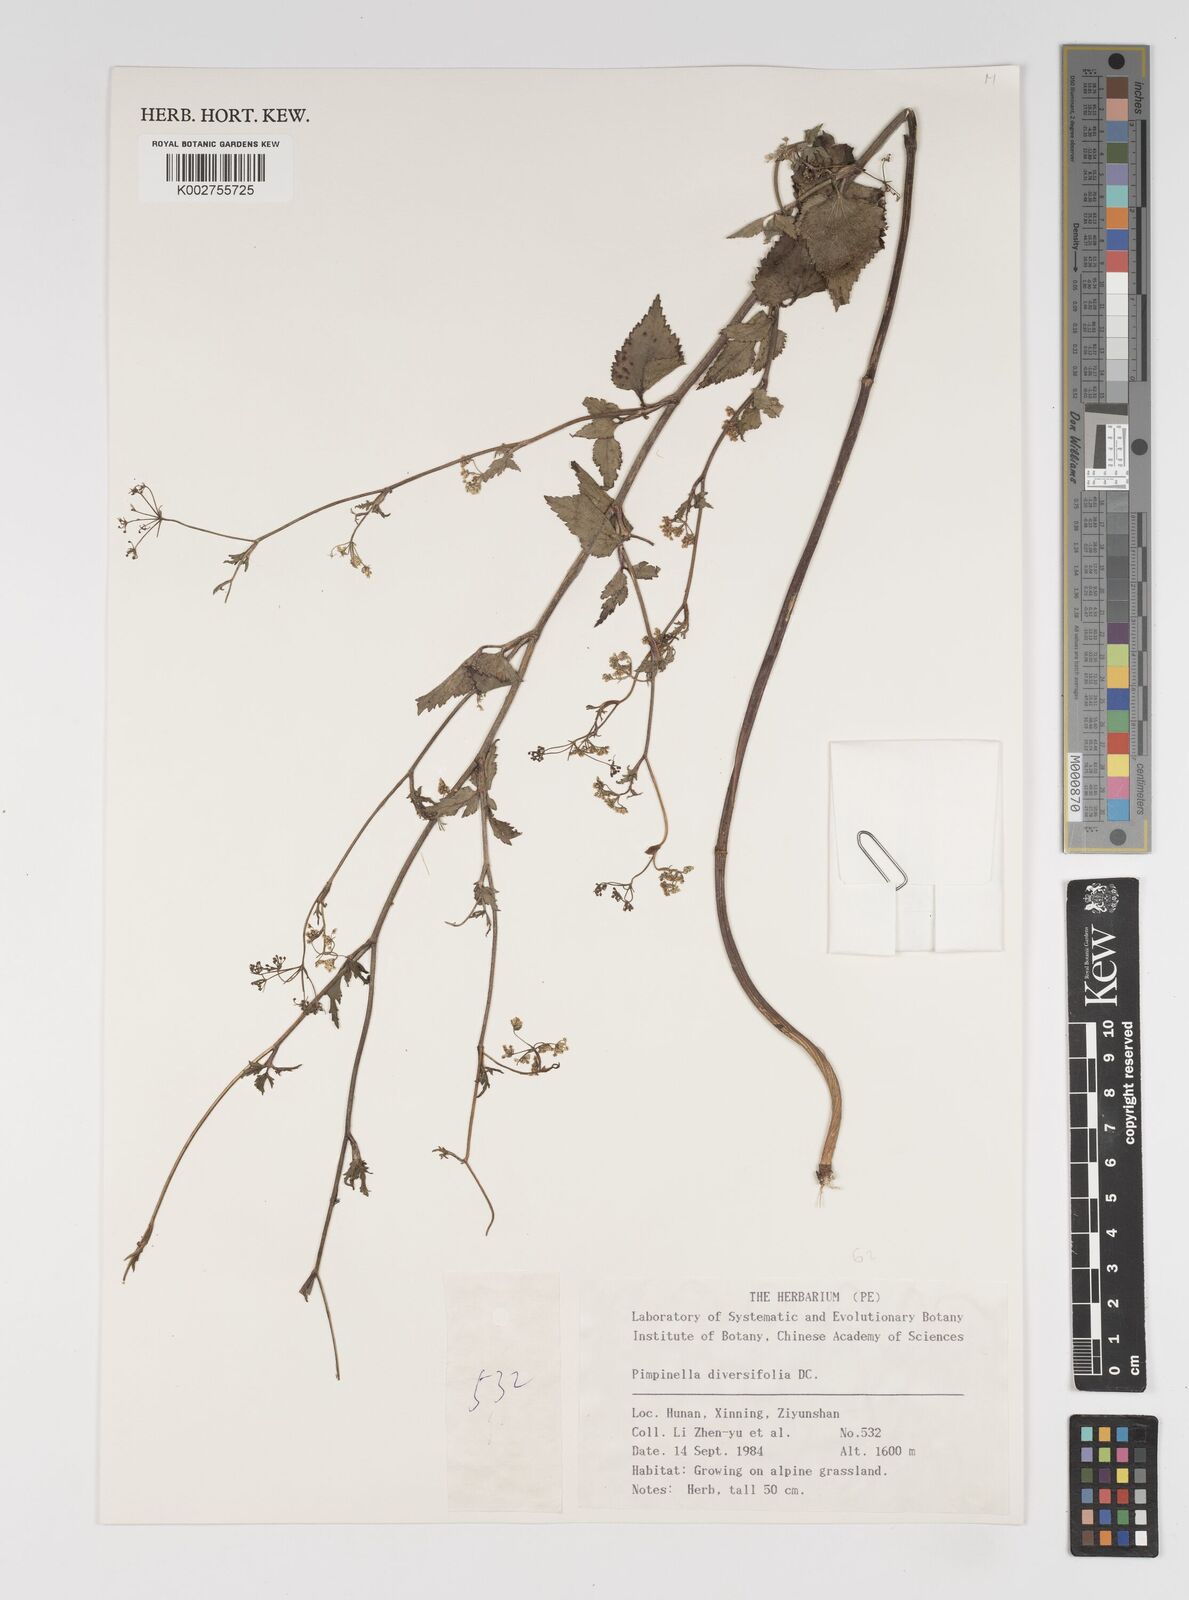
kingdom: Plantae
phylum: Tracheophyta
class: Magnoliopsida
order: Apiales
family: Apiaceae
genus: Pimpinella
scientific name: Pimpinella diversifolia
